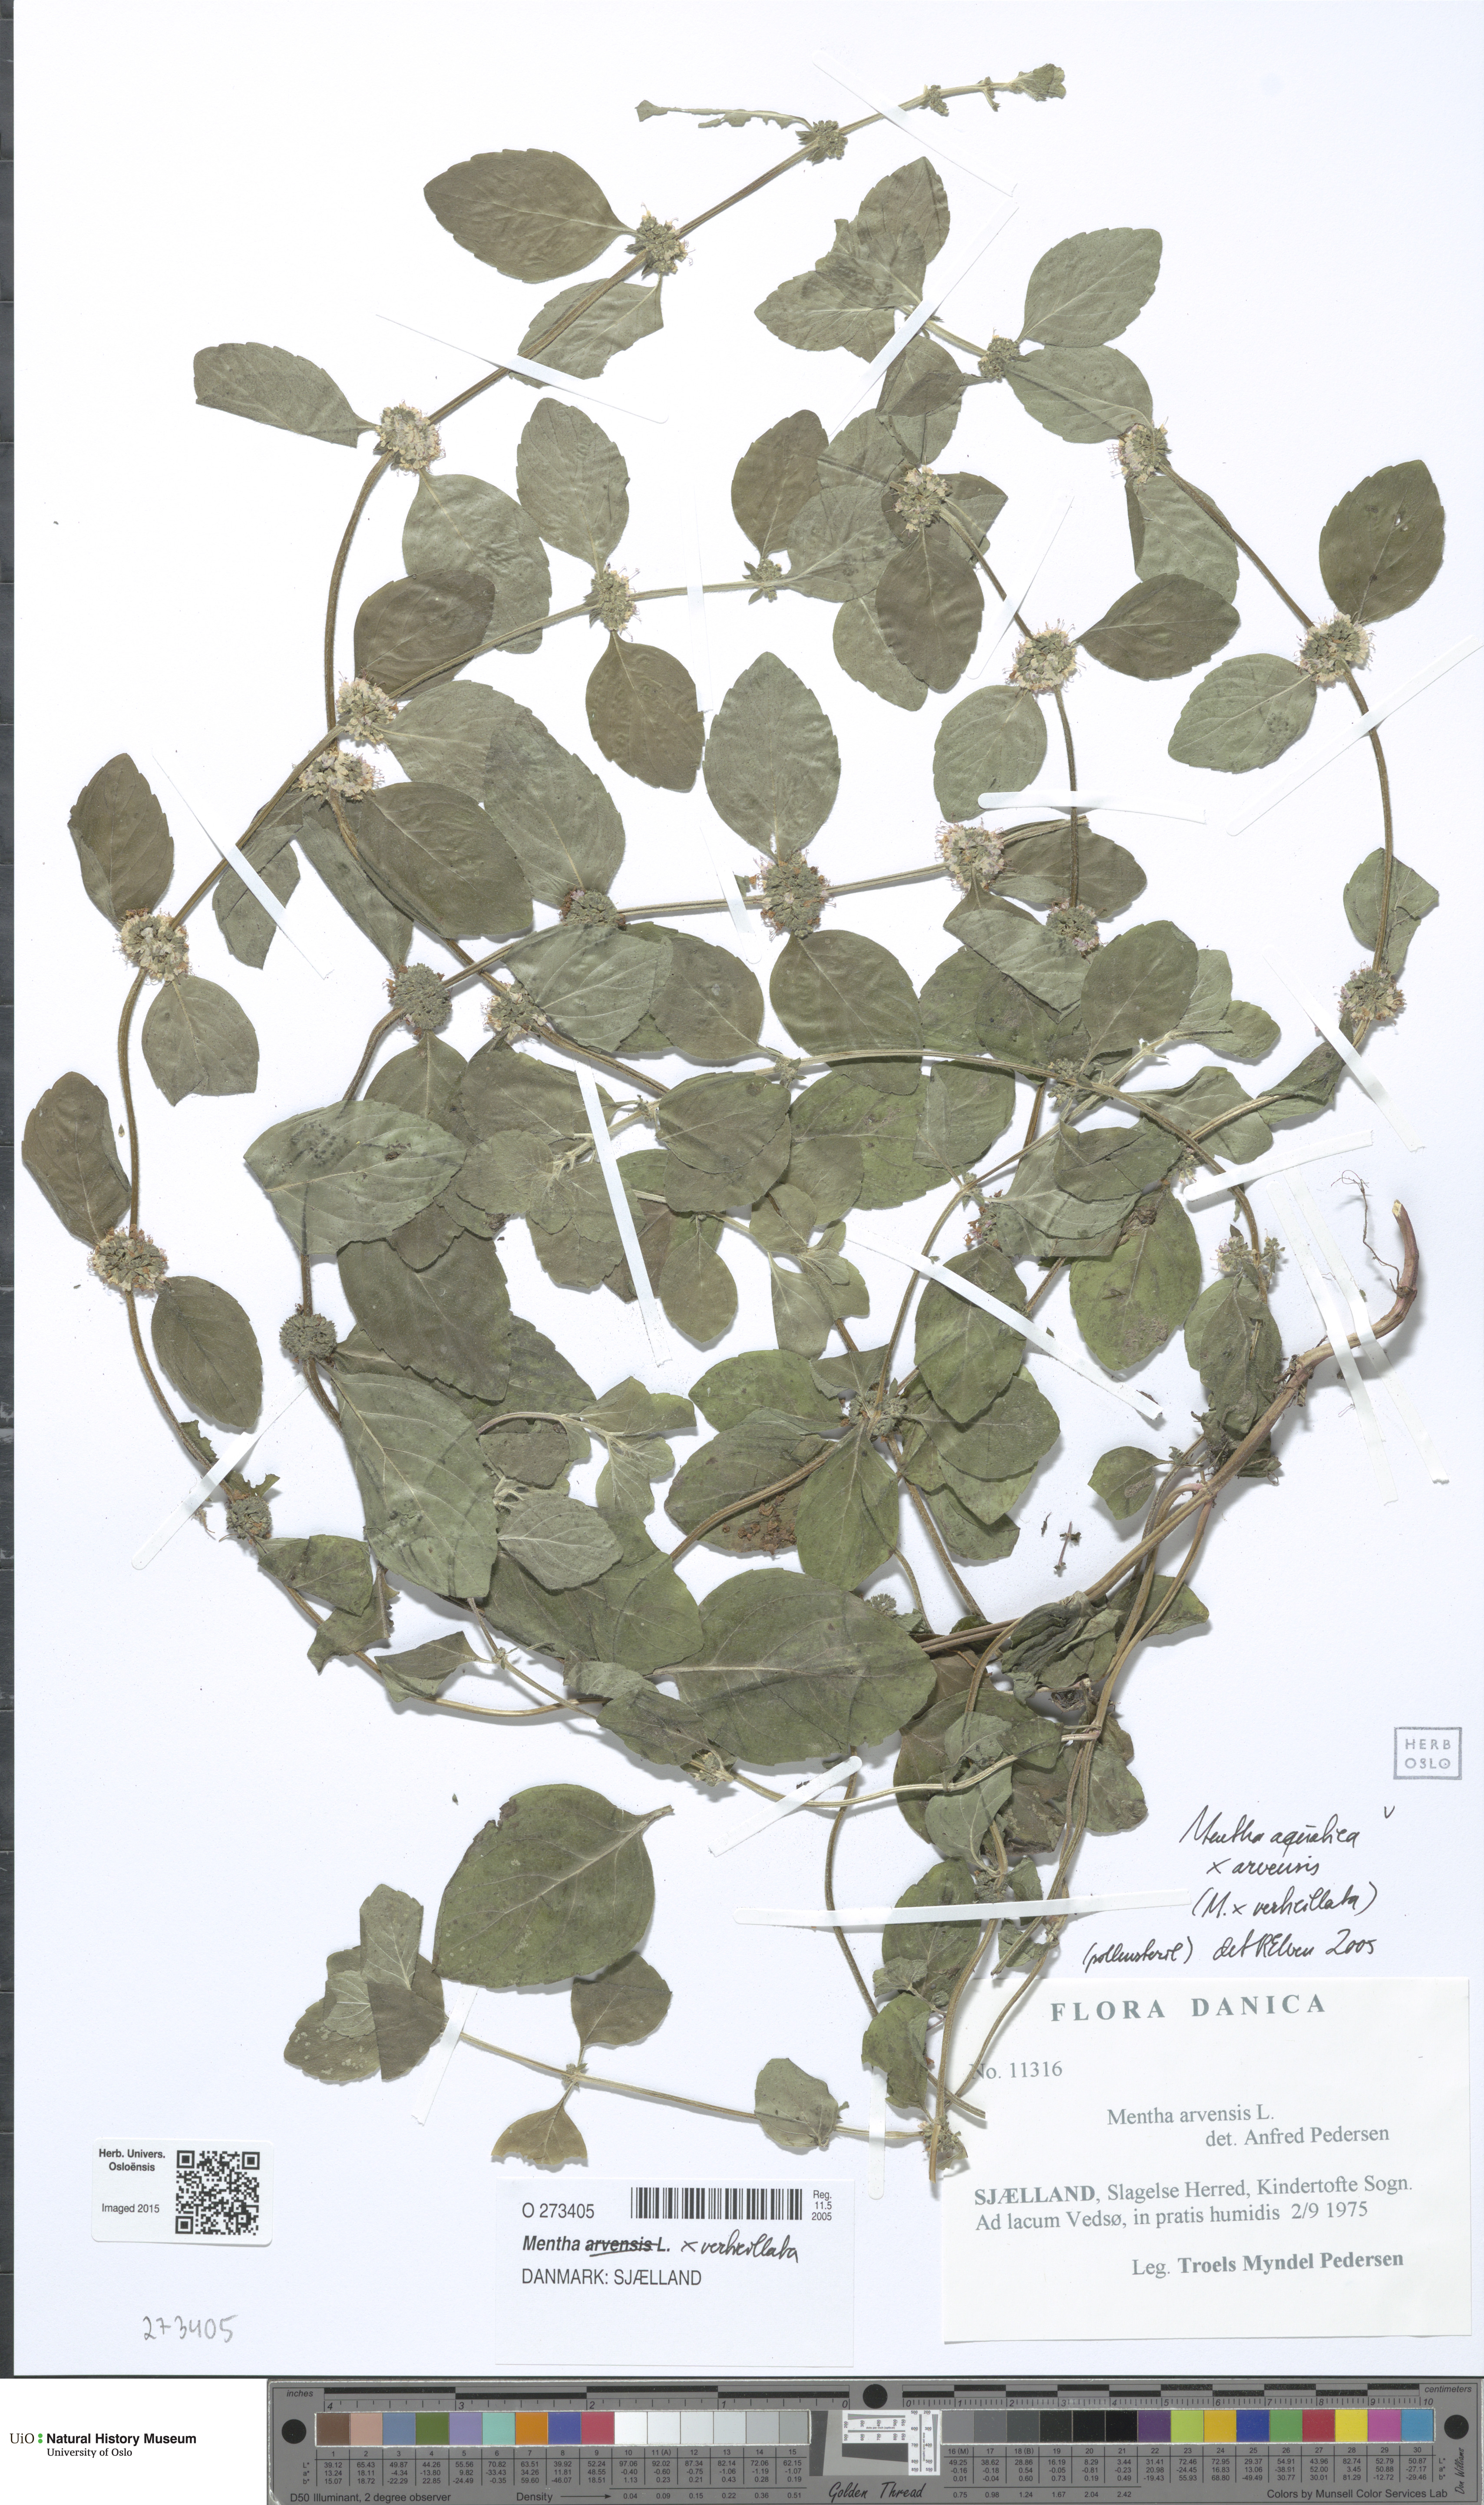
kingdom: Plantae
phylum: Tracheophyta
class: Magnoliopsida
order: Lamiales
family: Lamiaceae
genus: Mentha
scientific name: Mentha verticillata
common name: Mint
